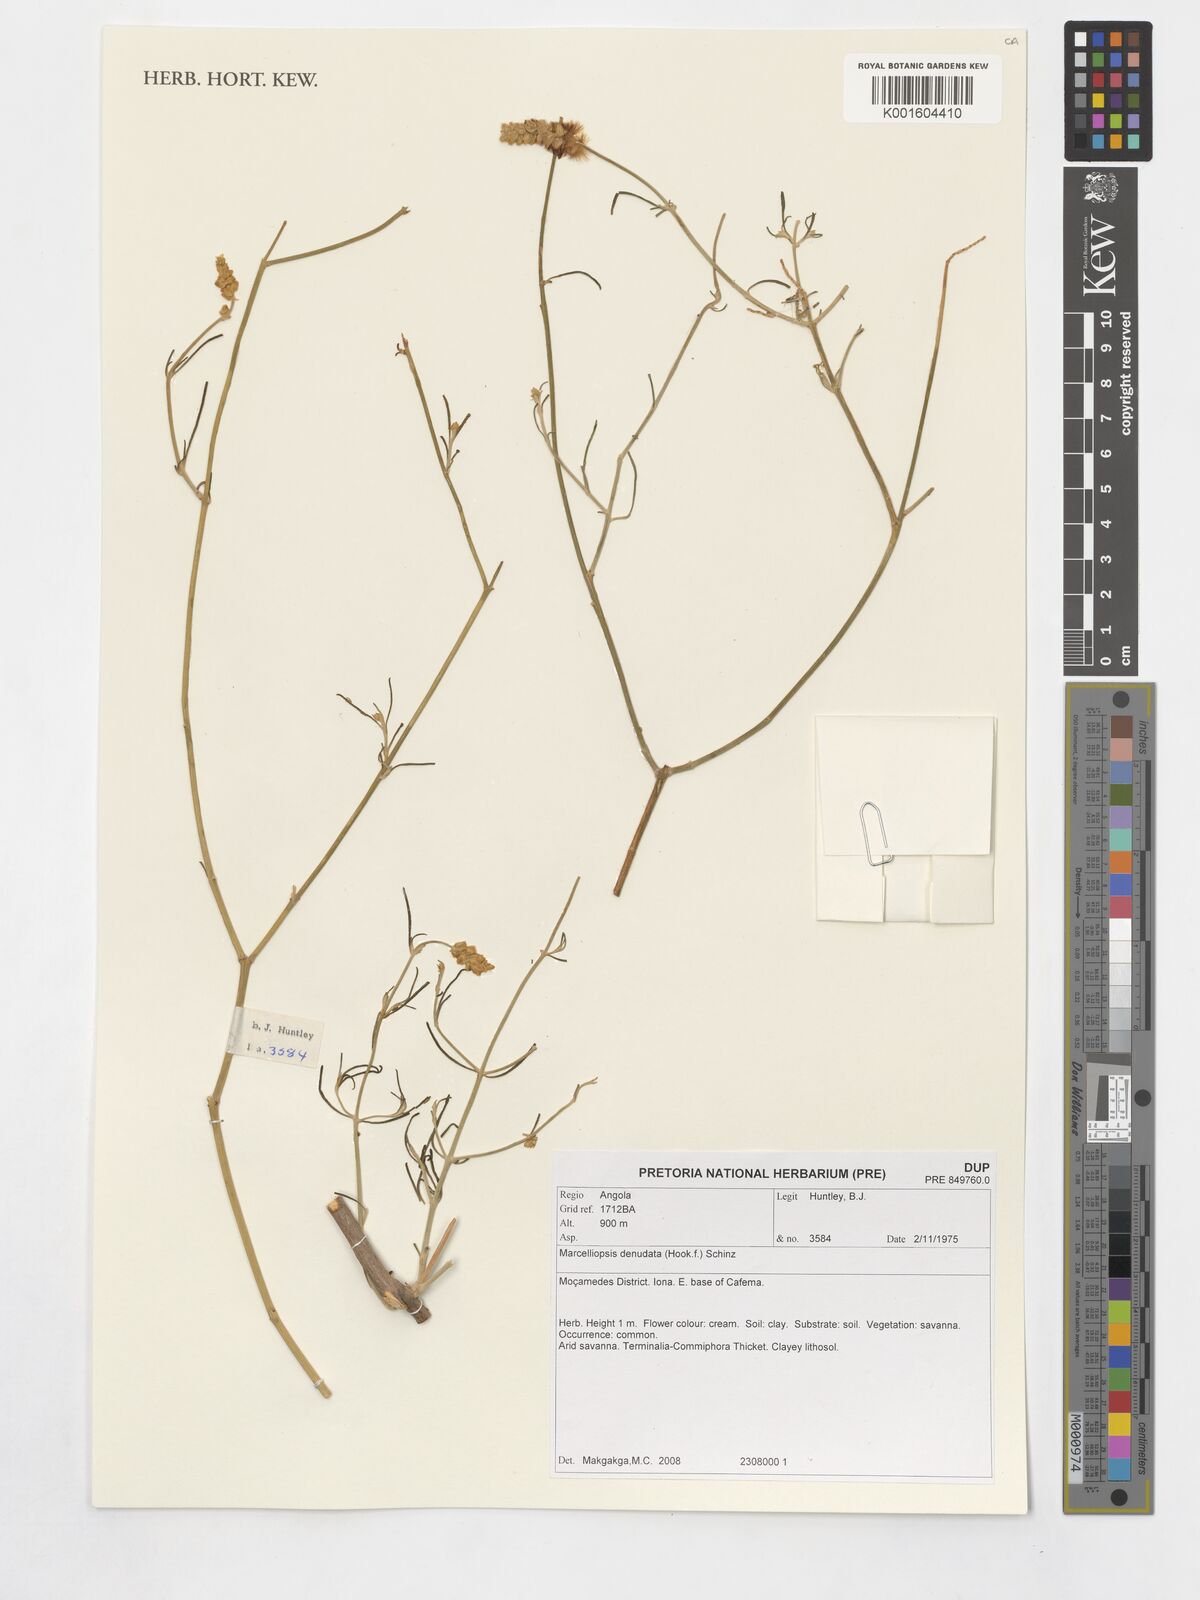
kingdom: Plantae
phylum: Tracheophyta
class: Magnoliopsida
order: Caryophyllales
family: Amaranthaceae
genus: Marcelliopsis
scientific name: Marcelliopsis denudata
